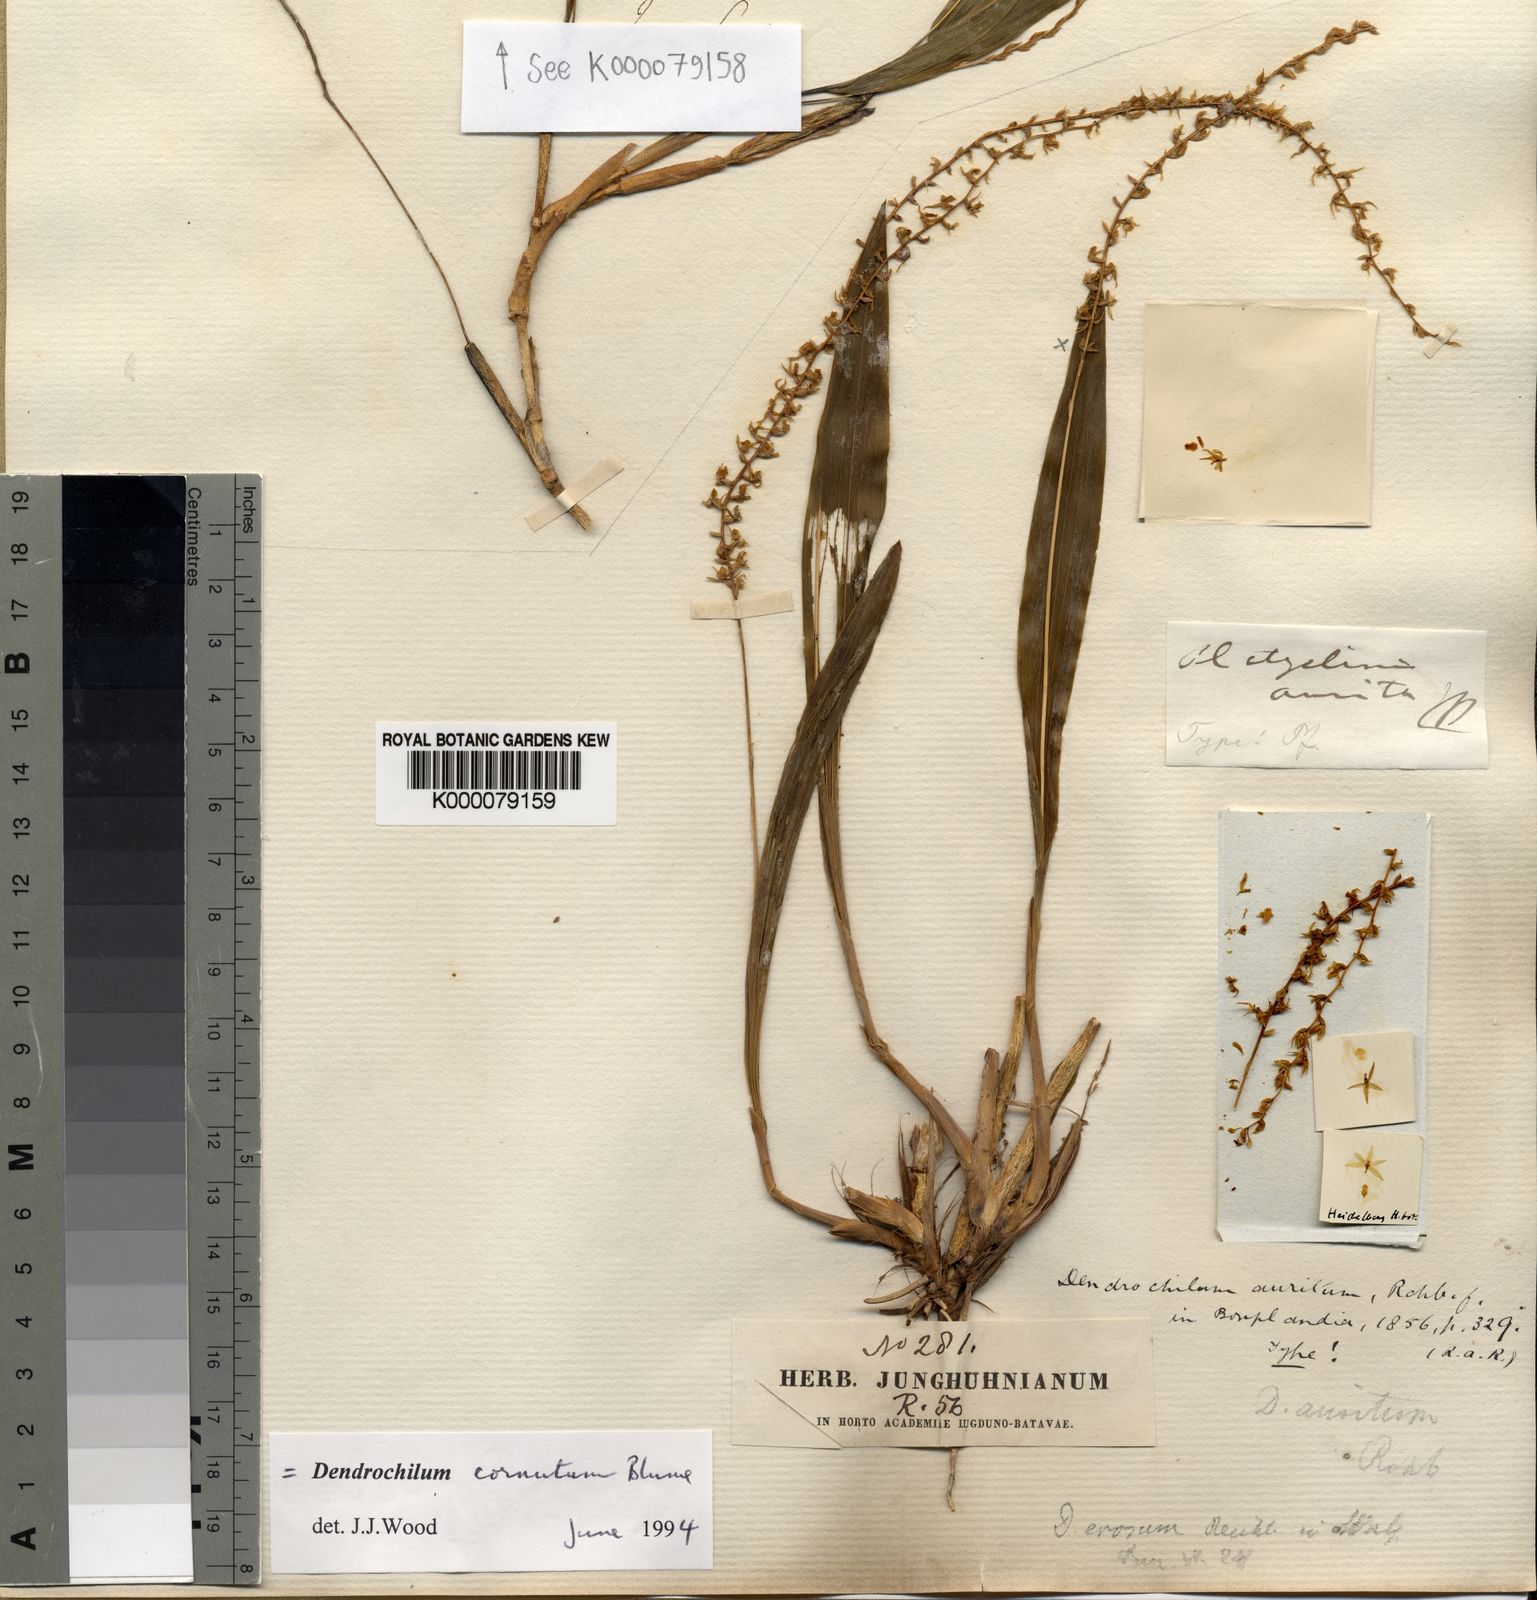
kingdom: Plantae
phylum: Tracheophyta
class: Liliopsida
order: Asparagales
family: Orchidaceae
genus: Coelogyne
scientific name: Coelogyne cornuta
